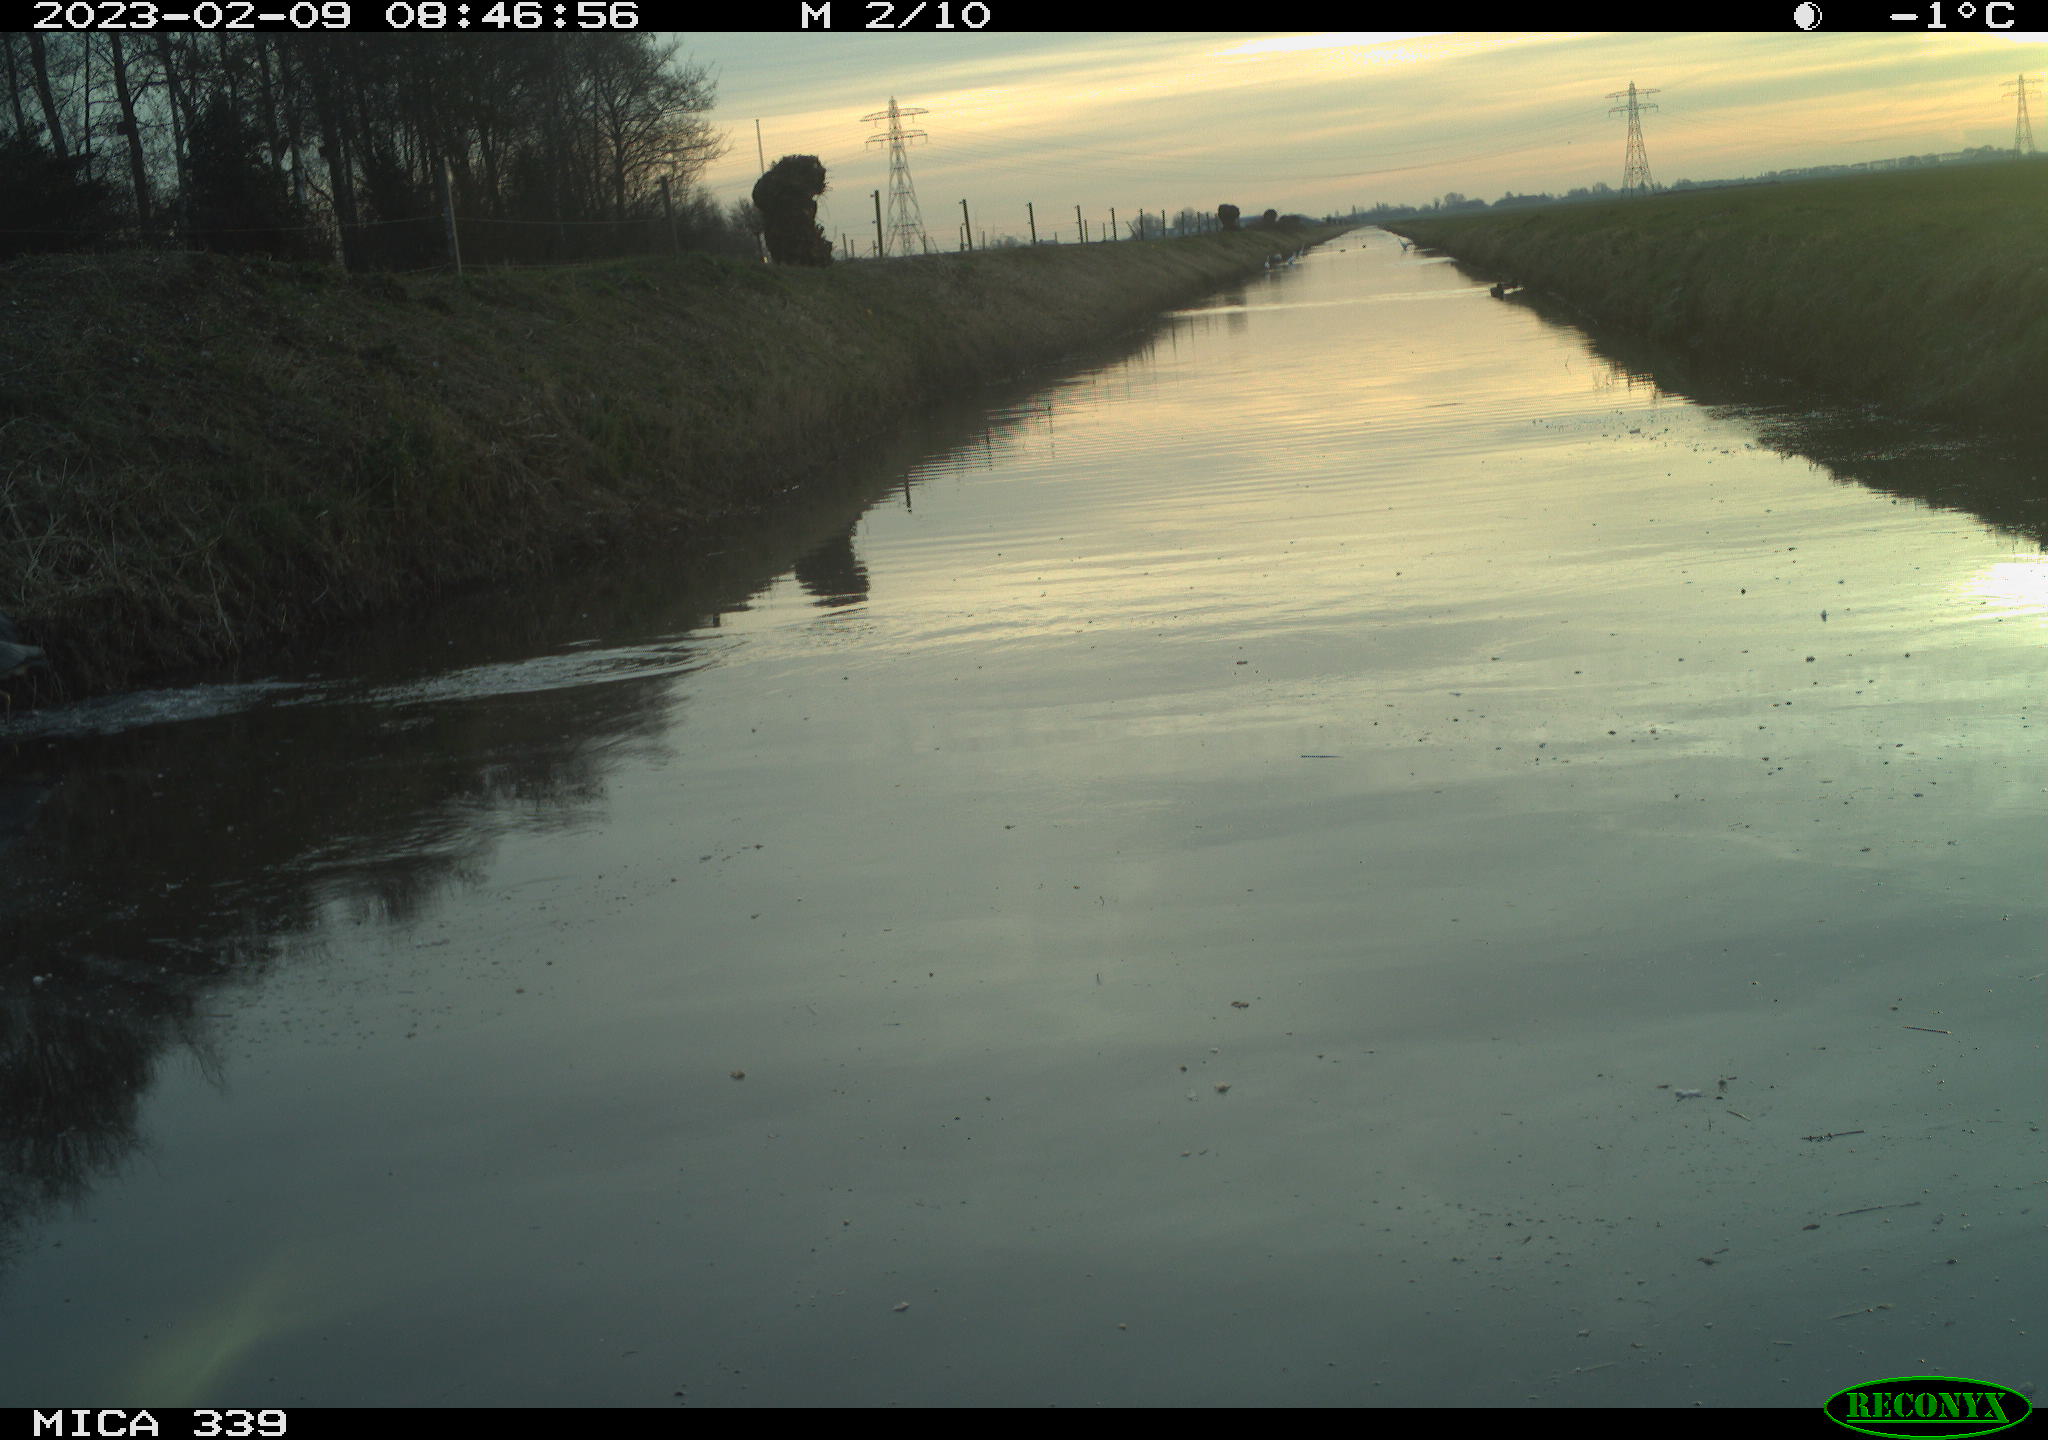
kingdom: Animalia
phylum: Chordata
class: Aves
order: Pelecaniformes
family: Ardeidae
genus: Ardea
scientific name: Ardea cinerea
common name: Grey heron
